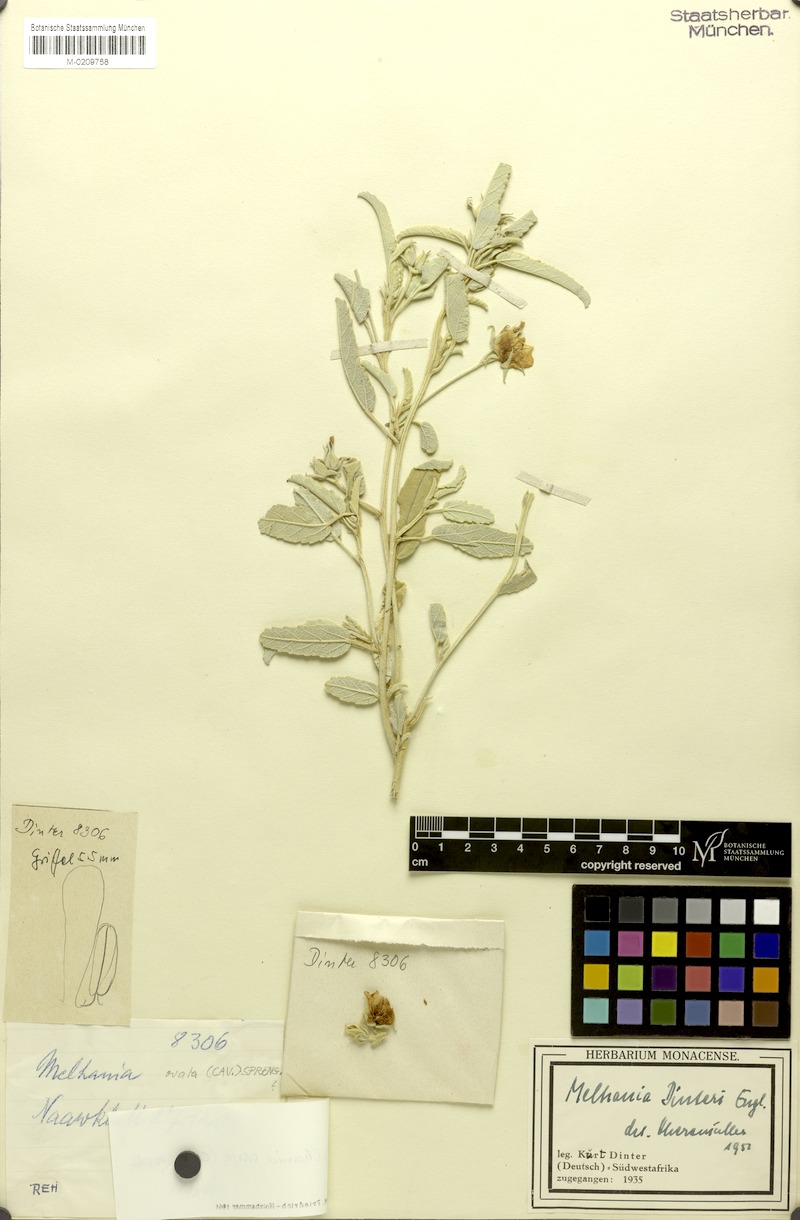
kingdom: Plantae
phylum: Tracheophyta
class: Magnoliopsida
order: Malvales
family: Malvaceae
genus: Melhania
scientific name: Melhania ovata
